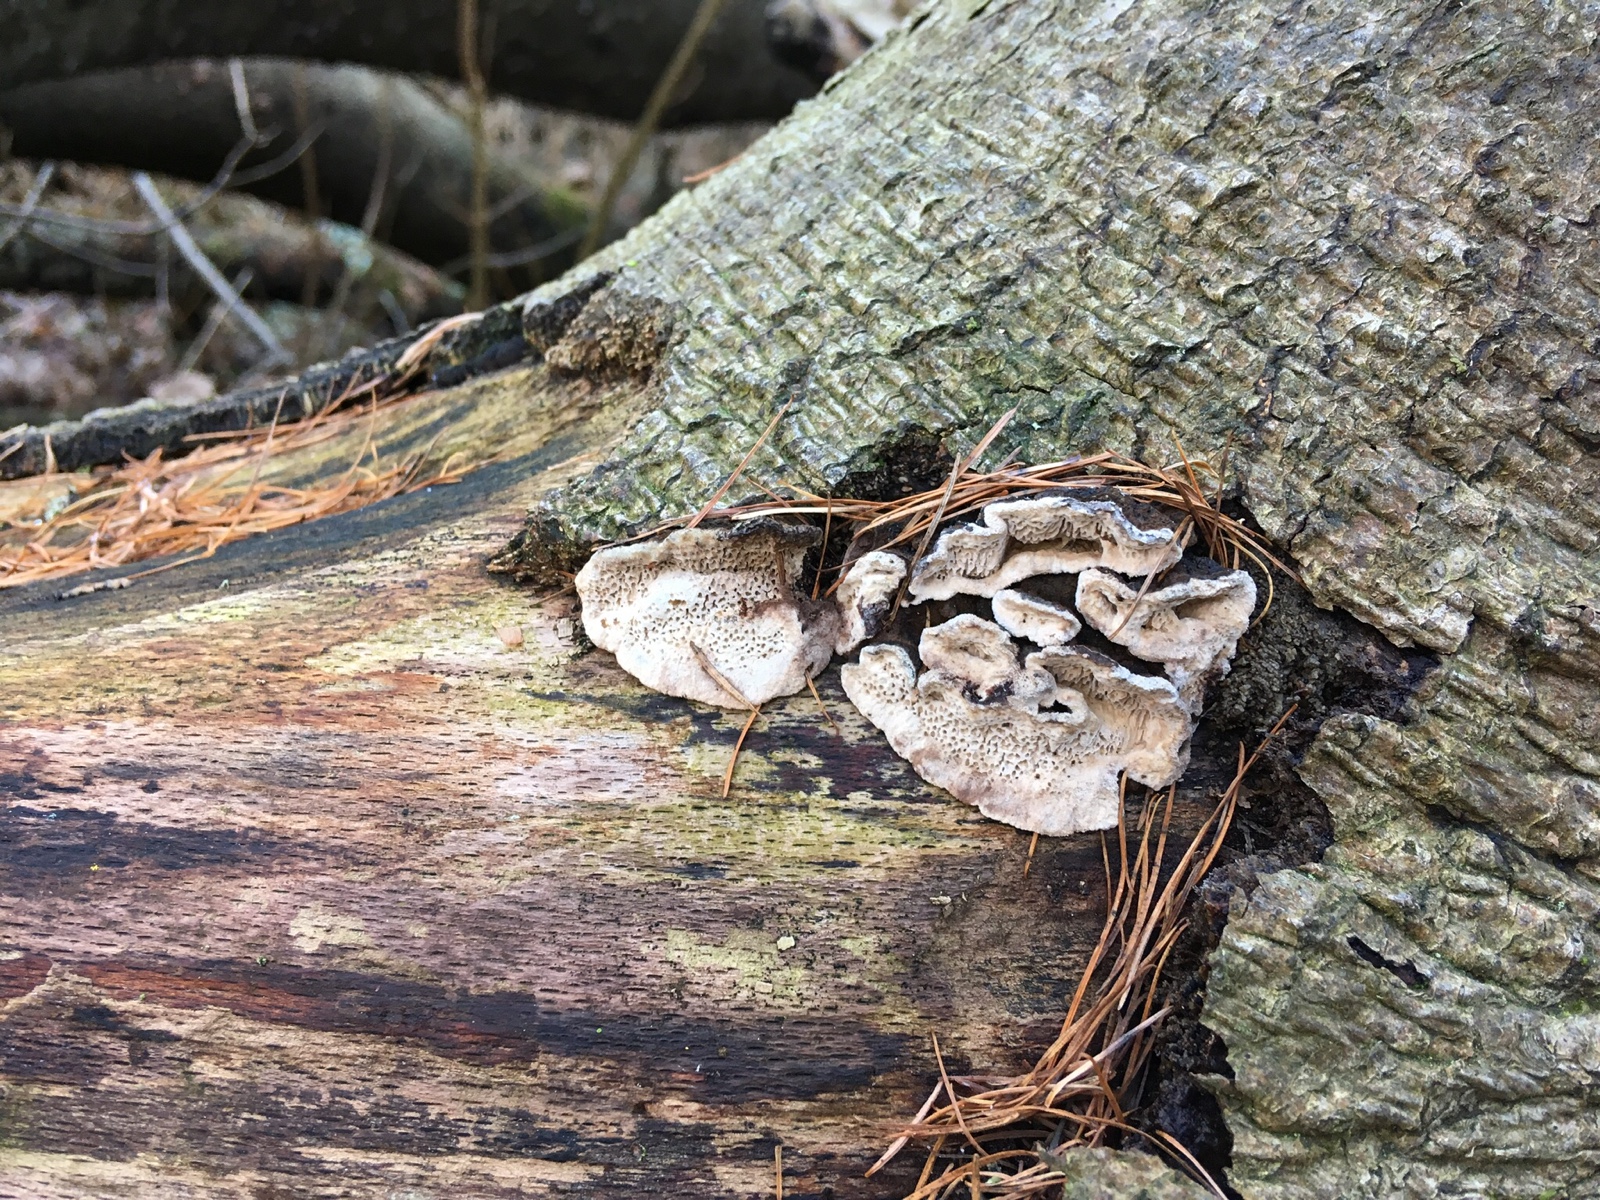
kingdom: Fungi
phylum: Basidiomycota
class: Agaricomycetes
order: Polyporales
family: Polyporaceae
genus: Podofomes
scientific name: Podofomes mollis
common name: blød begporesvamp
